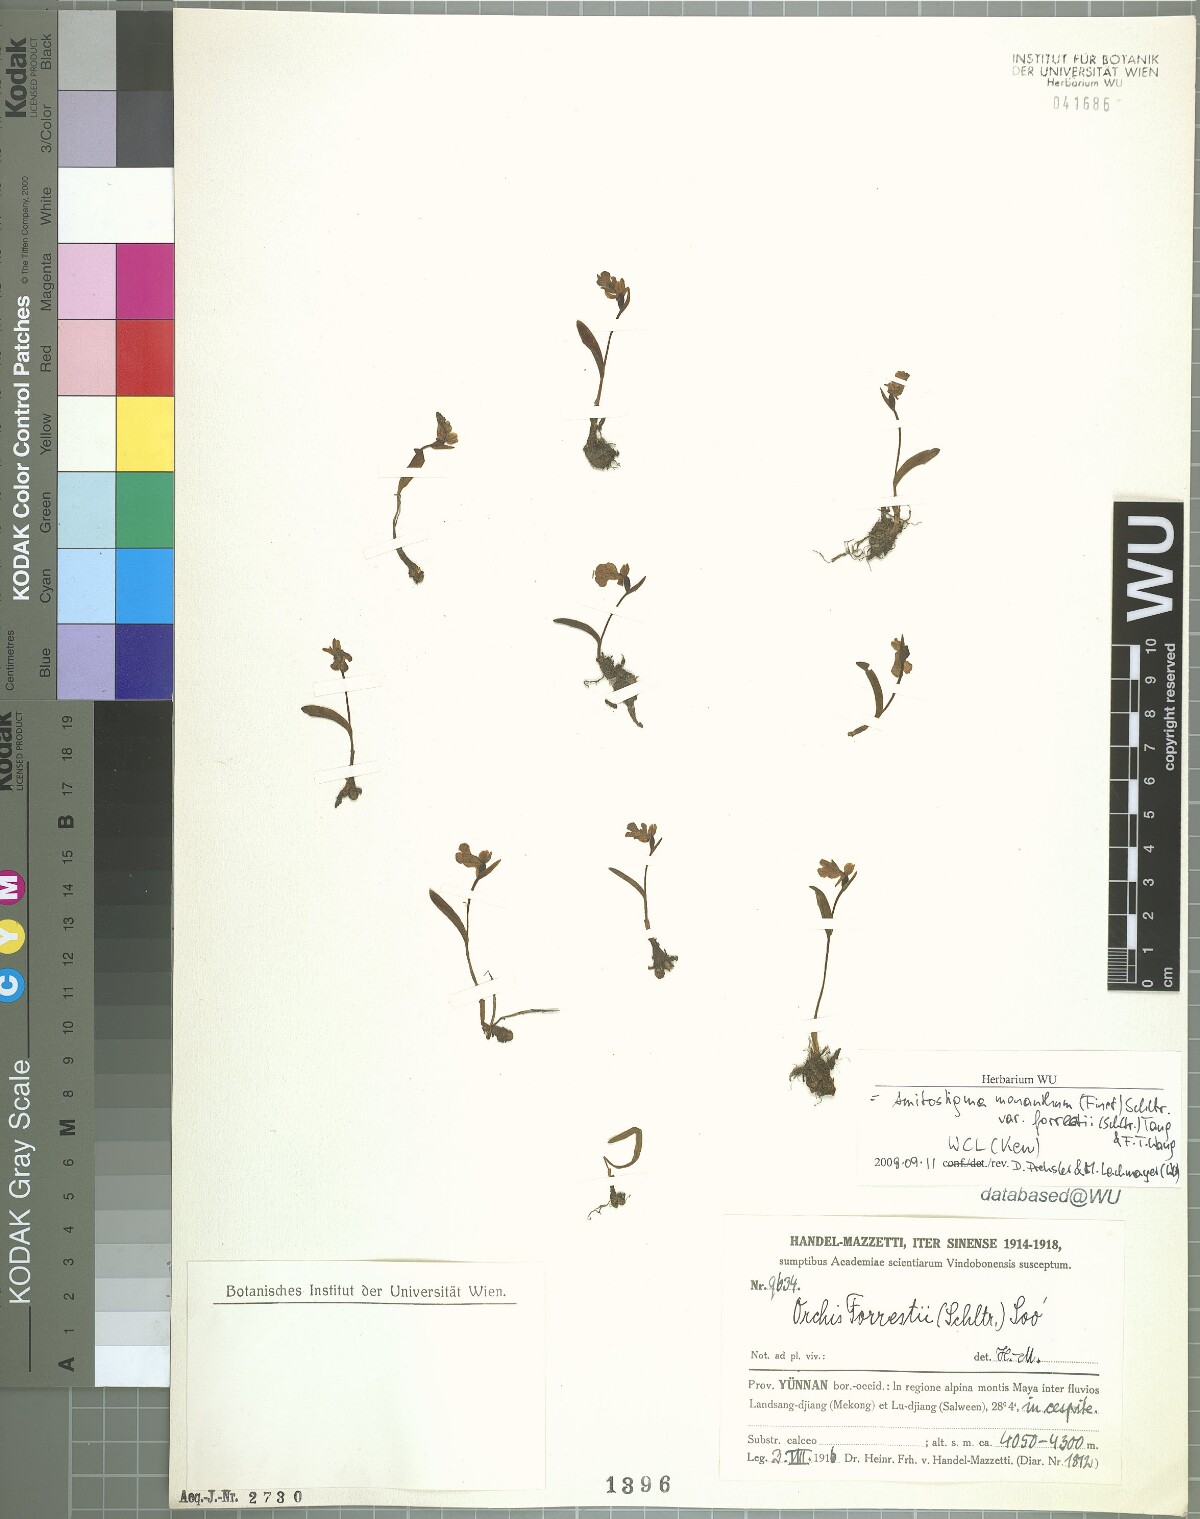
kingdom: Plantae
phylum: Tracheophyta
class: Liliopsida
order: Asparagales
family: Orchidaceae
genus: Hemipilia
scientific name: Hemipilia monantha
